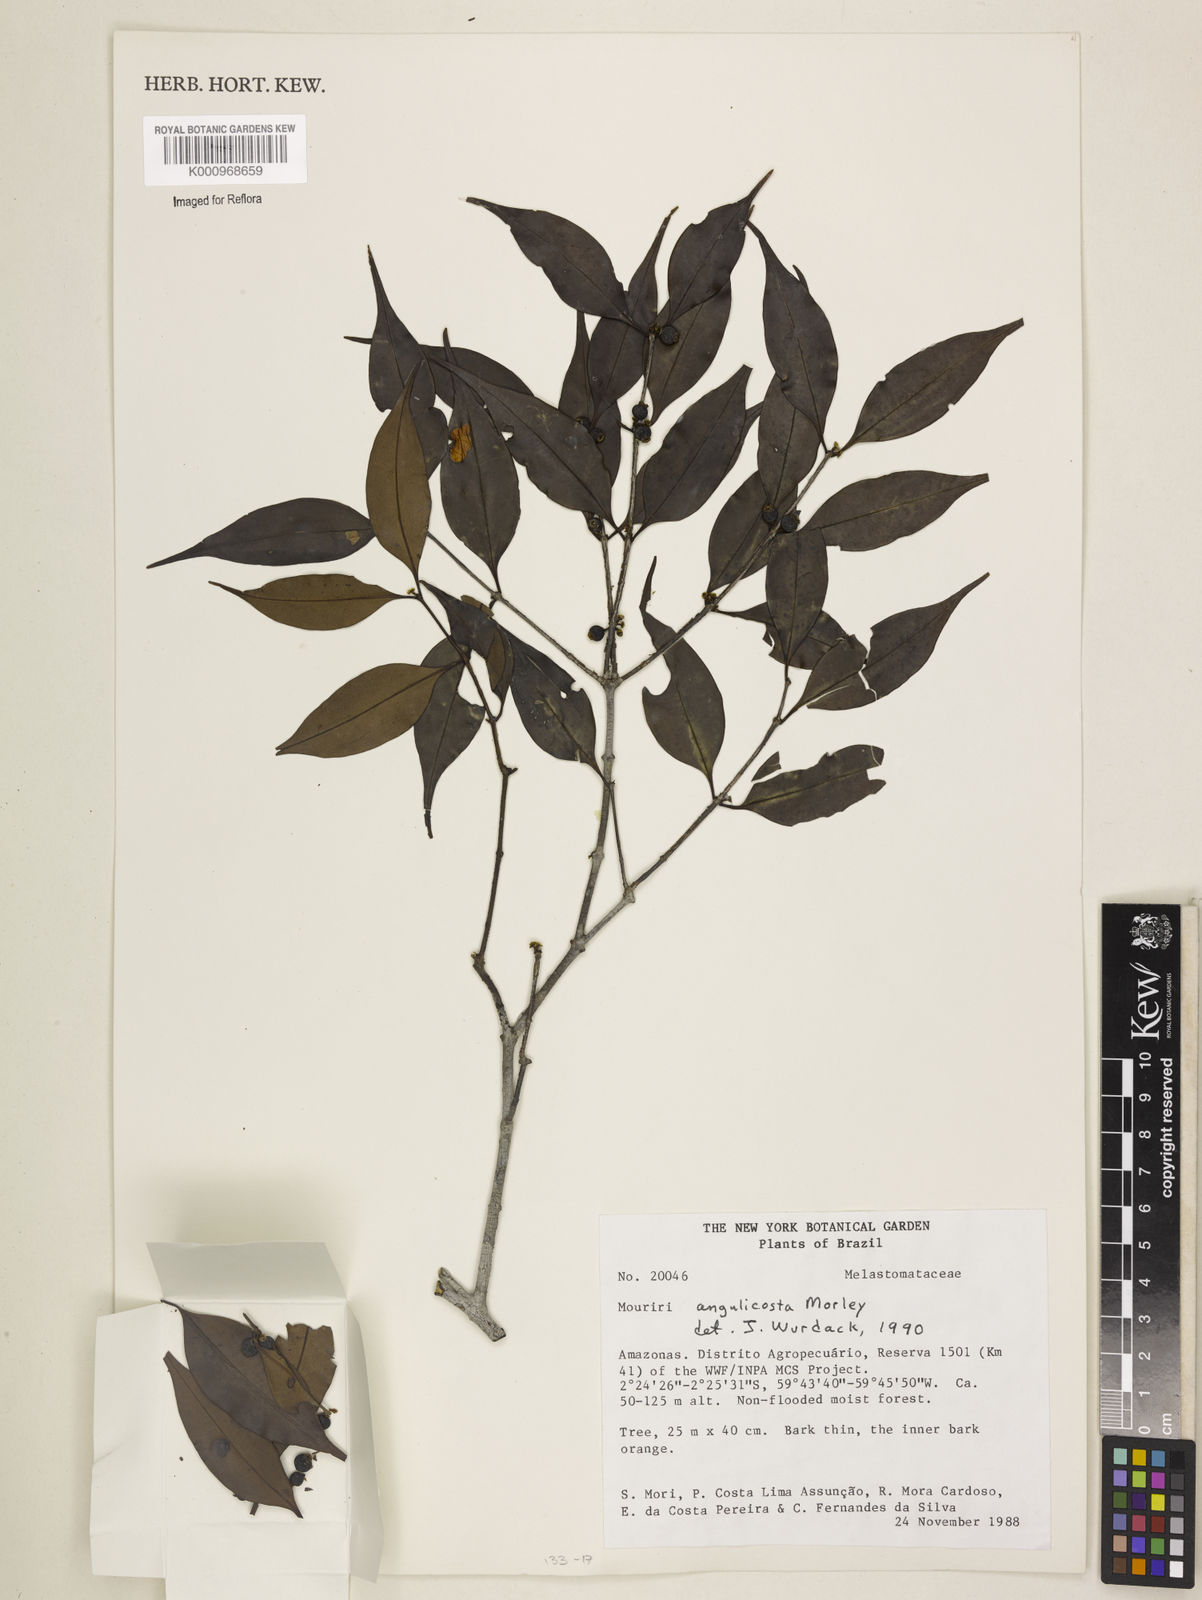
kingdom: Plantae
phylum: Tracheophyta
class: Magnoliopsida
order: Myrtales
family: Melastomataceae
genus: Mouriri
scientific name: Mouriri angulicosta
